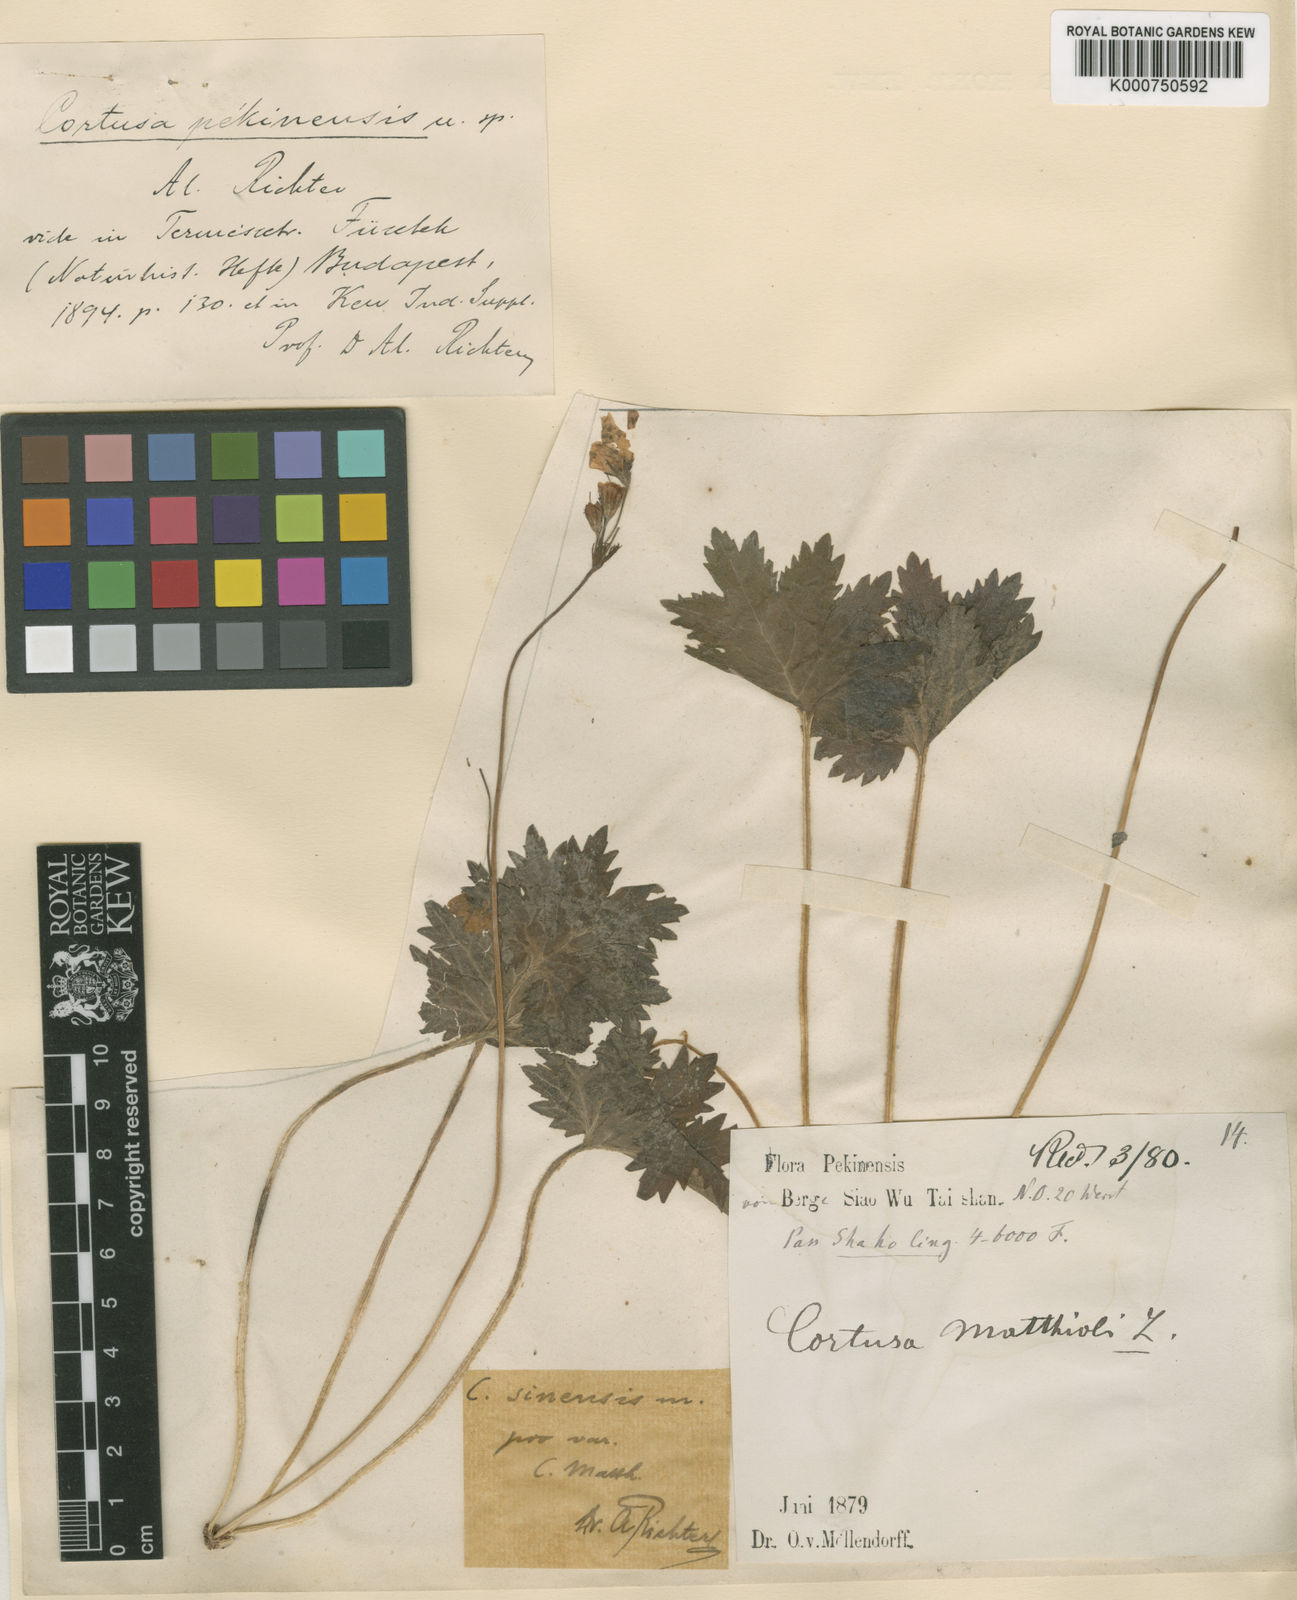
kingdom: Plantae
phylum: Tracheophyta
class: Magnoliopsida
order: Ericales
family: Primulaceae
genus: Primula
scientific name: Primula matthioli
